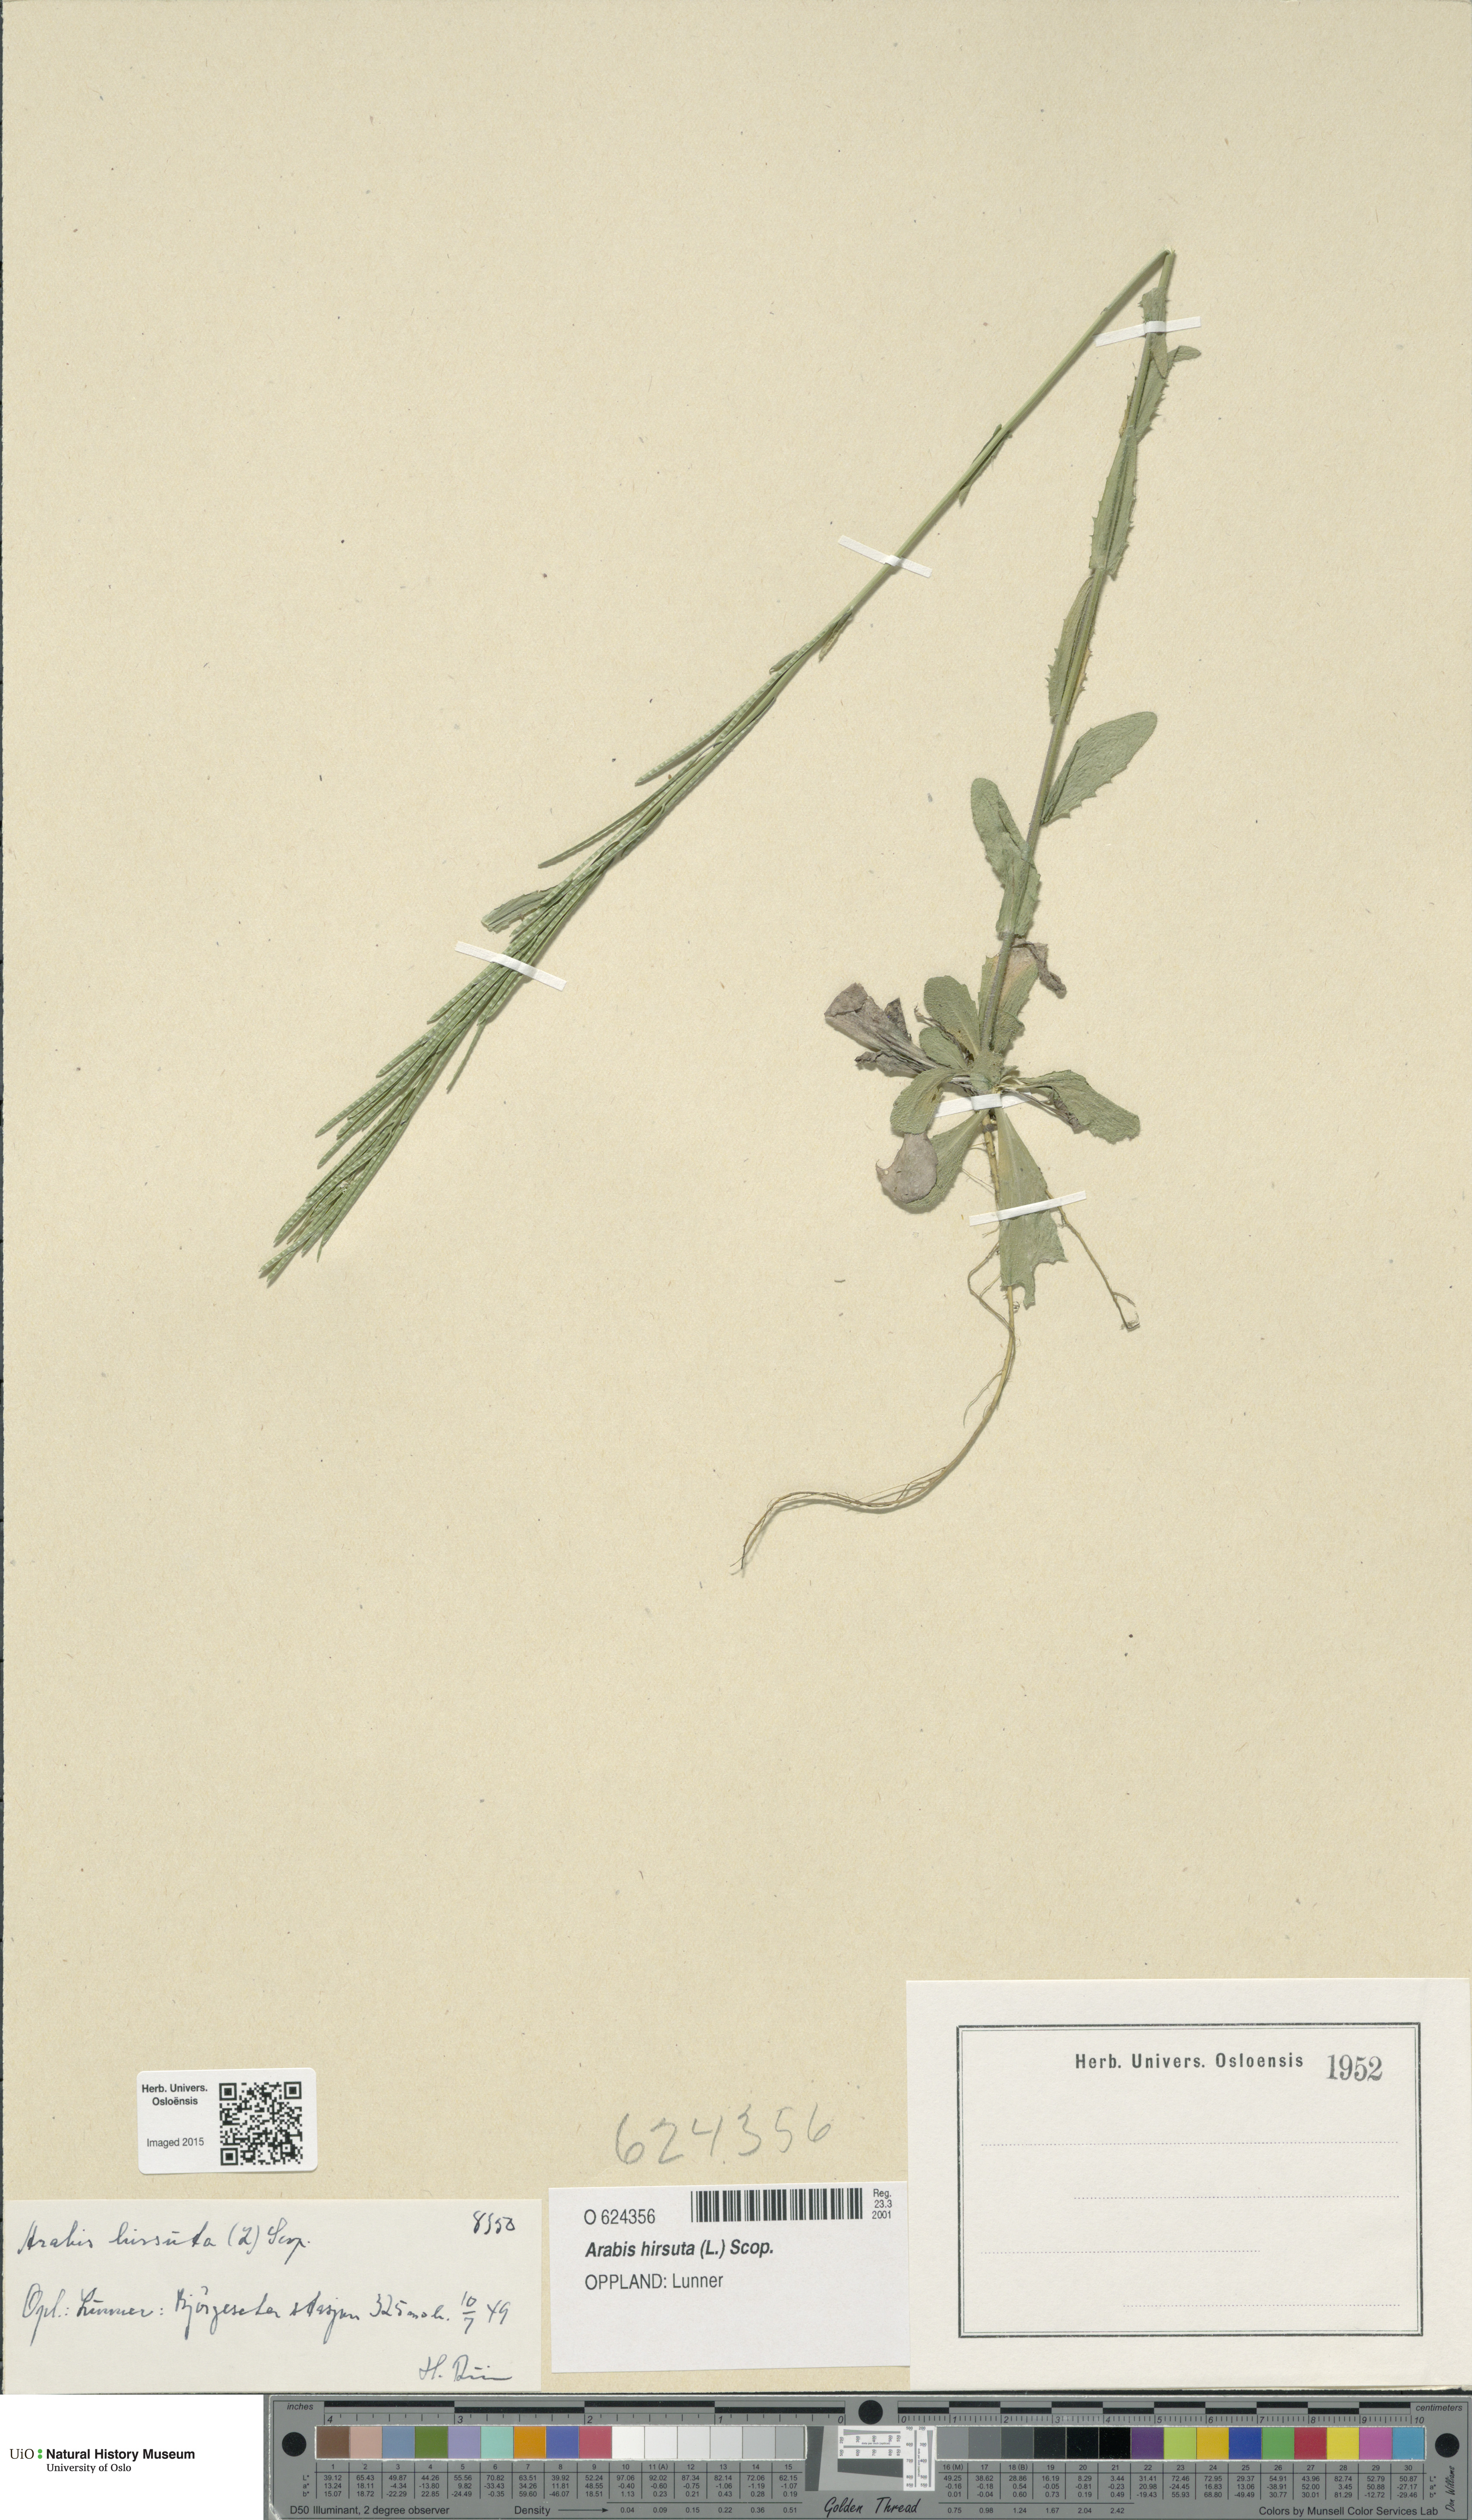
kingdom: Plantae
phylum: Tracheophyta
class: Magnoliopsida
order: Brassicales
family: Brassicaceae
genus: Arabis
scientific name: Arabis hirsuta
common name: Hairy rock-cress
